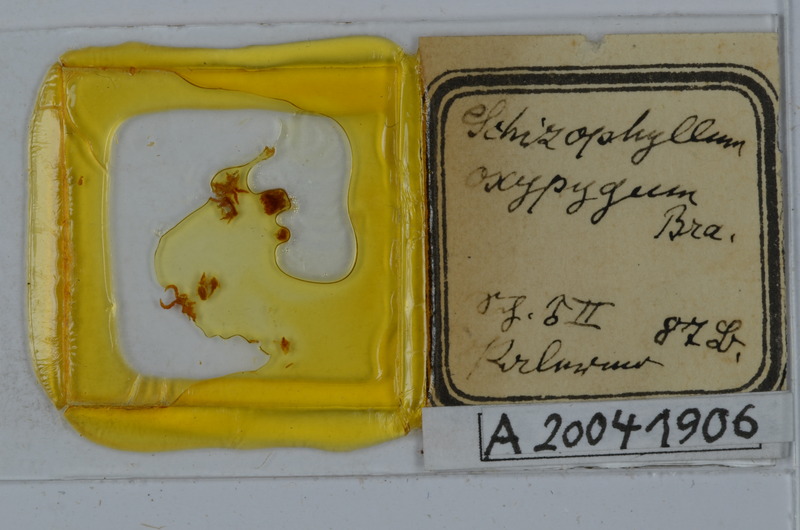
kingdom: Animalia
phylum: Arthropoda
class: Diplopoda
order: Julida
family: Julidae
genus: Ommatoiulus
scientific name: Ommatoiulus oxypygus
